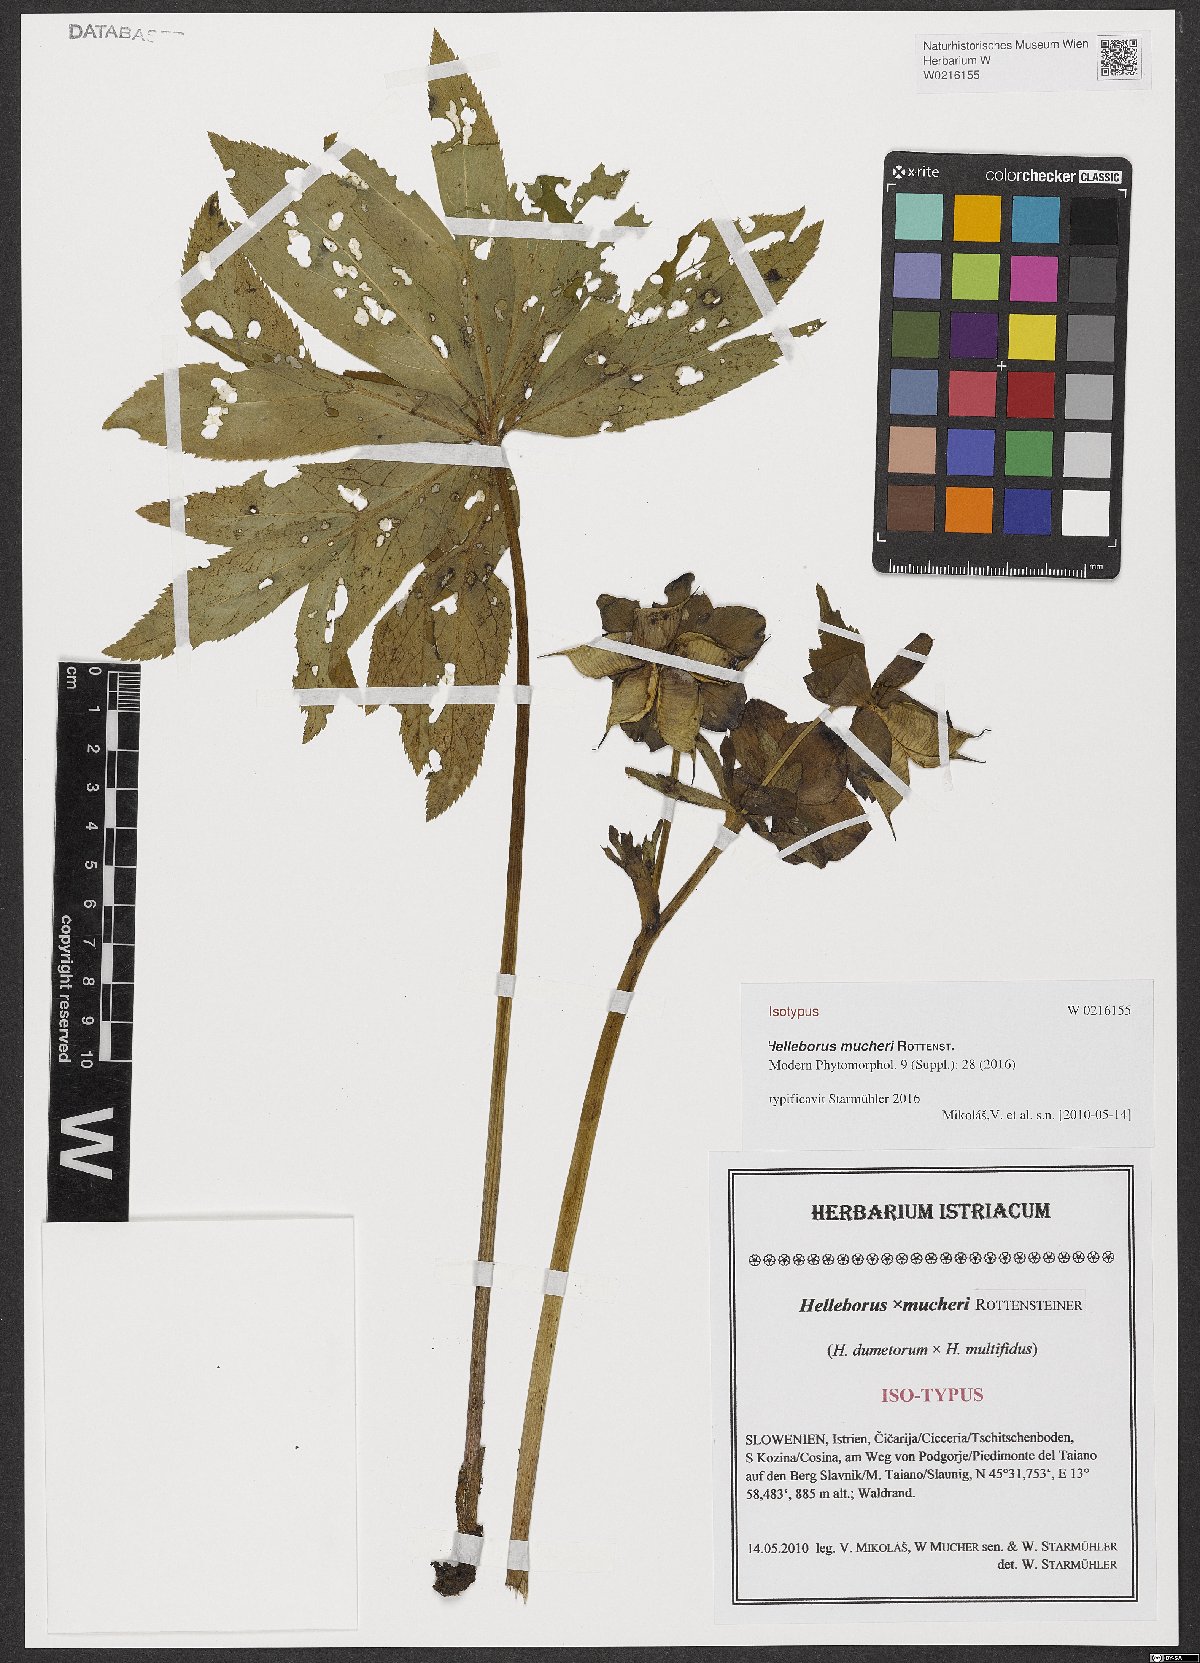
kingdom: Plantae
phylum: Tracheophyta
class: Magnoliopsida
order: Ranunculales
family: Ranunculaceae
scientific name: Ranunculaceae
